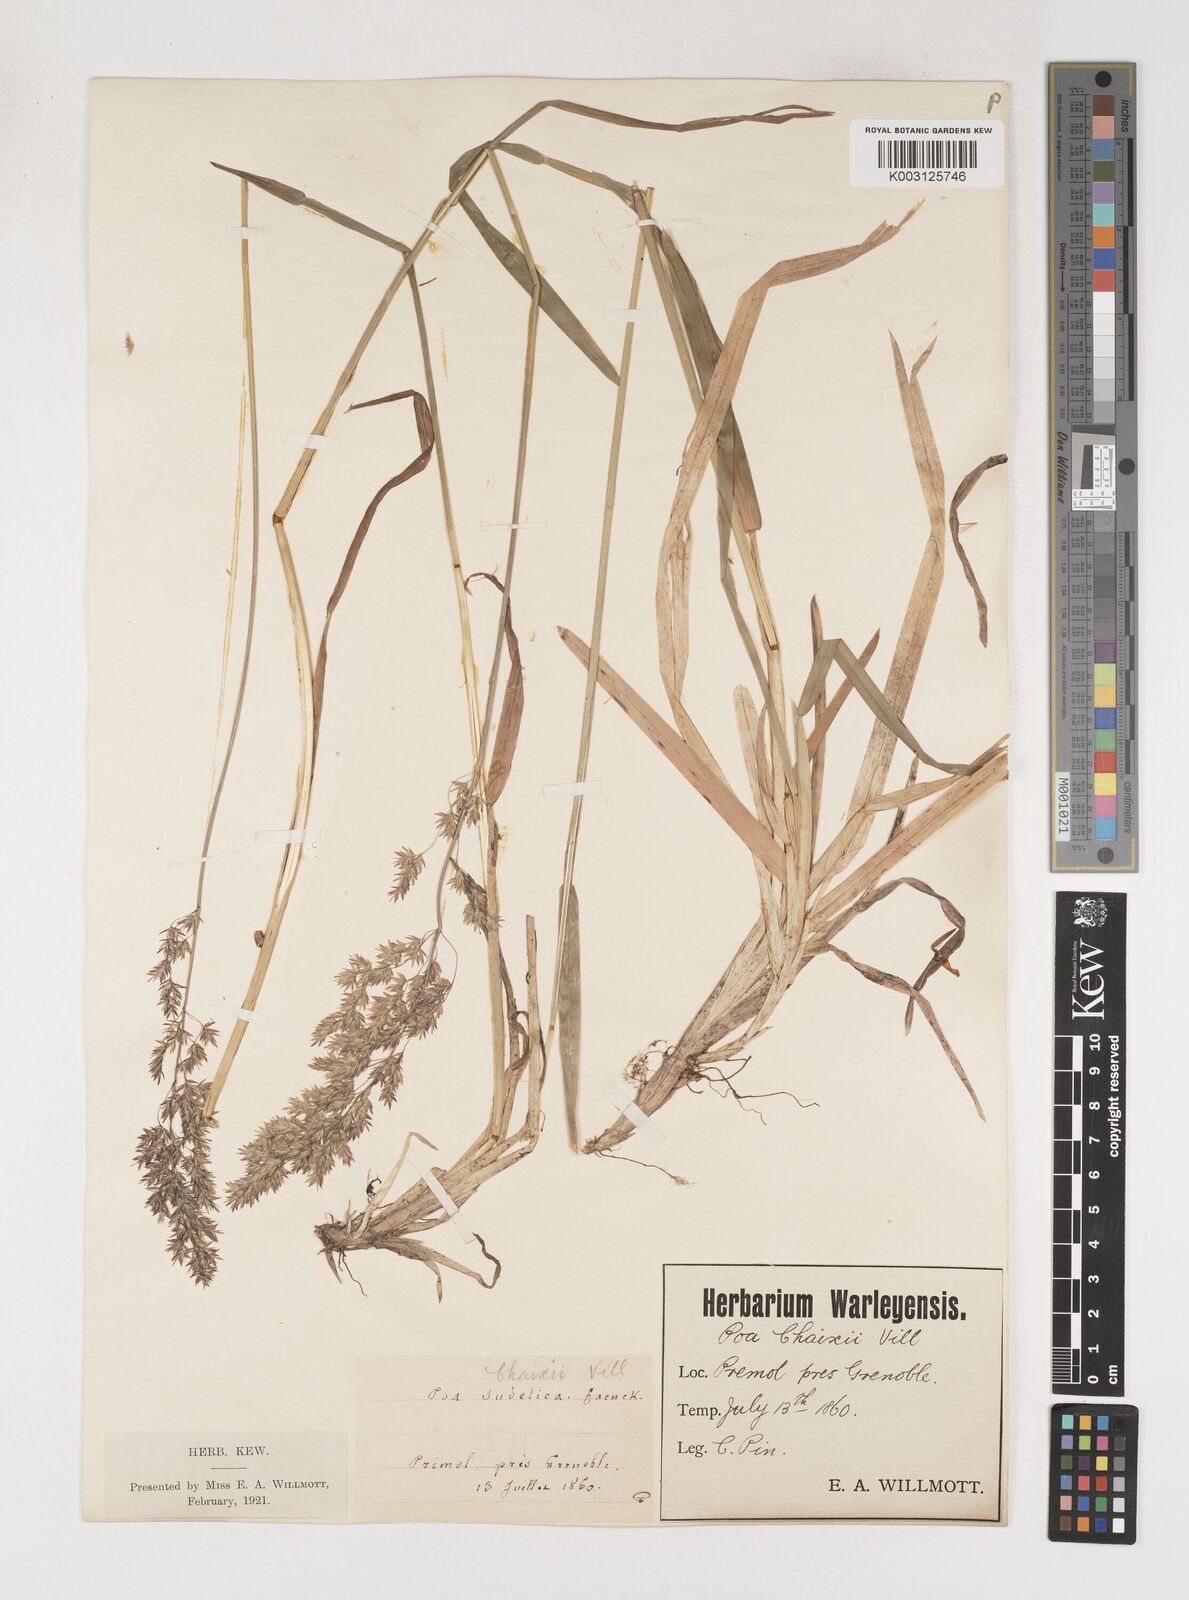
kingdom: Plantae
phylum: Tracheophyta
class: Liliopsida
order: Poales
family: Poaceae
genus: Poa
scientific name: Poa chaixii
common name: Broad-leaved meadow-grass
